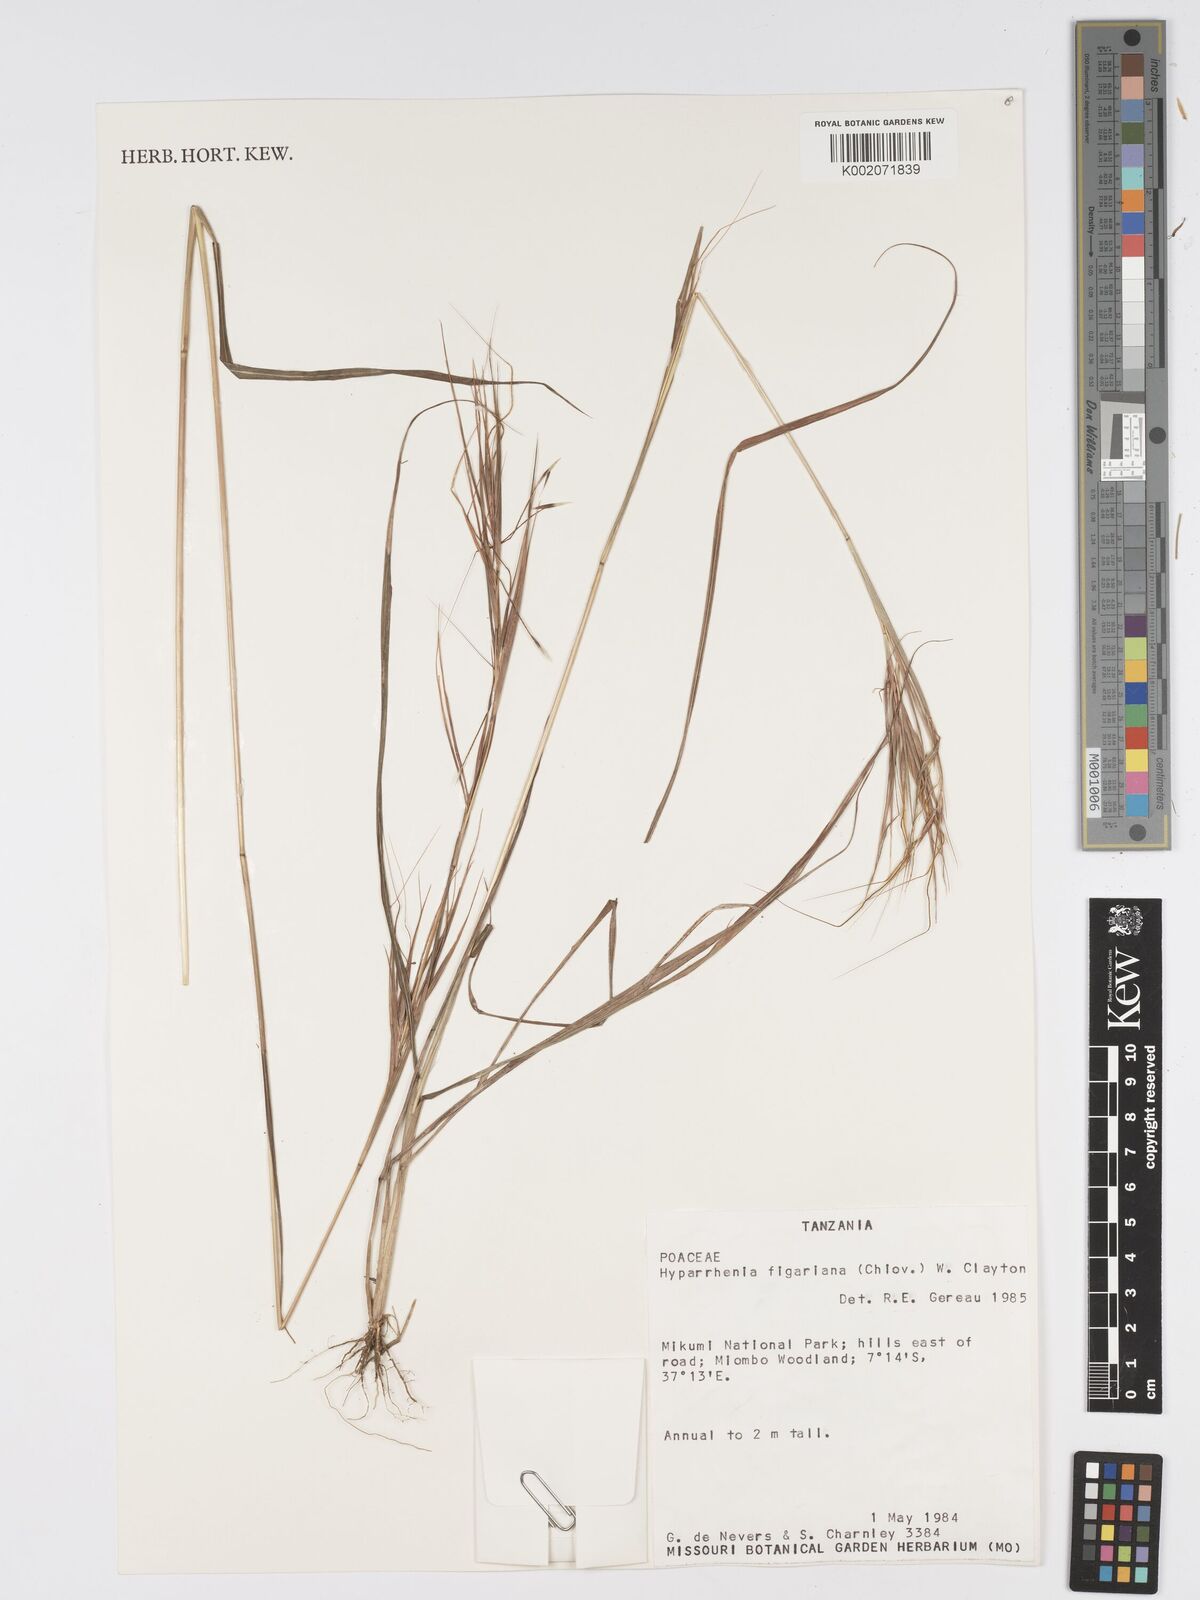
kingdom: Plantae
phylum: Tracheophyta
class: Liliopsida
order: Poales
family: Poaceae
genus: Hyparrhenia
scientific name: Hyparrhenia figariana
